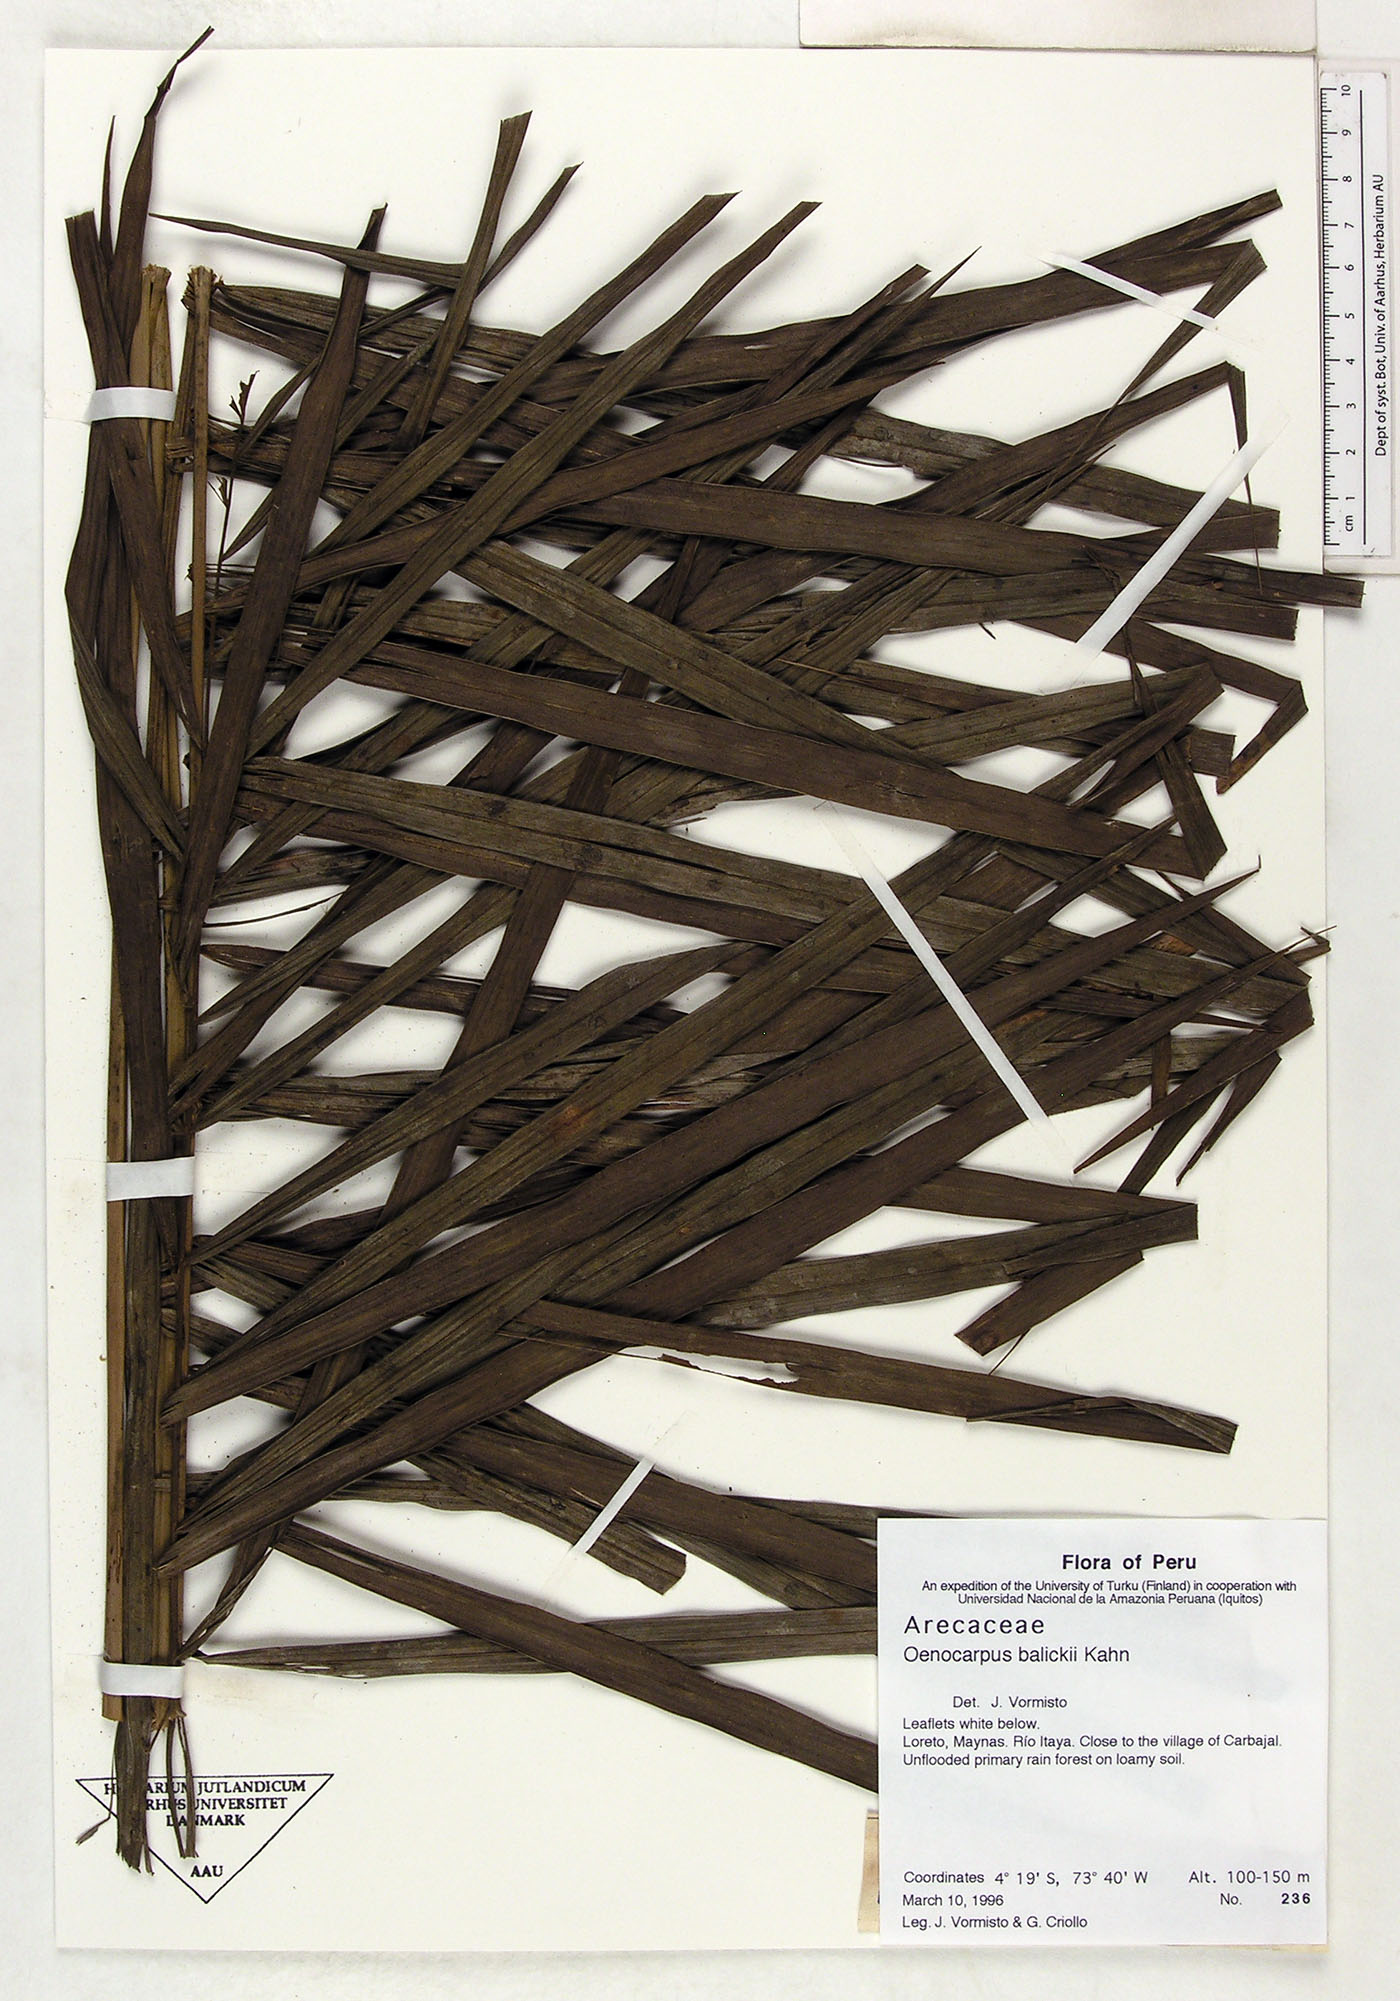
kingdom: Plantae
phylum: Tracheophyta
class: Liliopsida
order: Arecales
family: Arecaceae
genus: Oenocarpus
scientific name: Oenocarpus balickii
